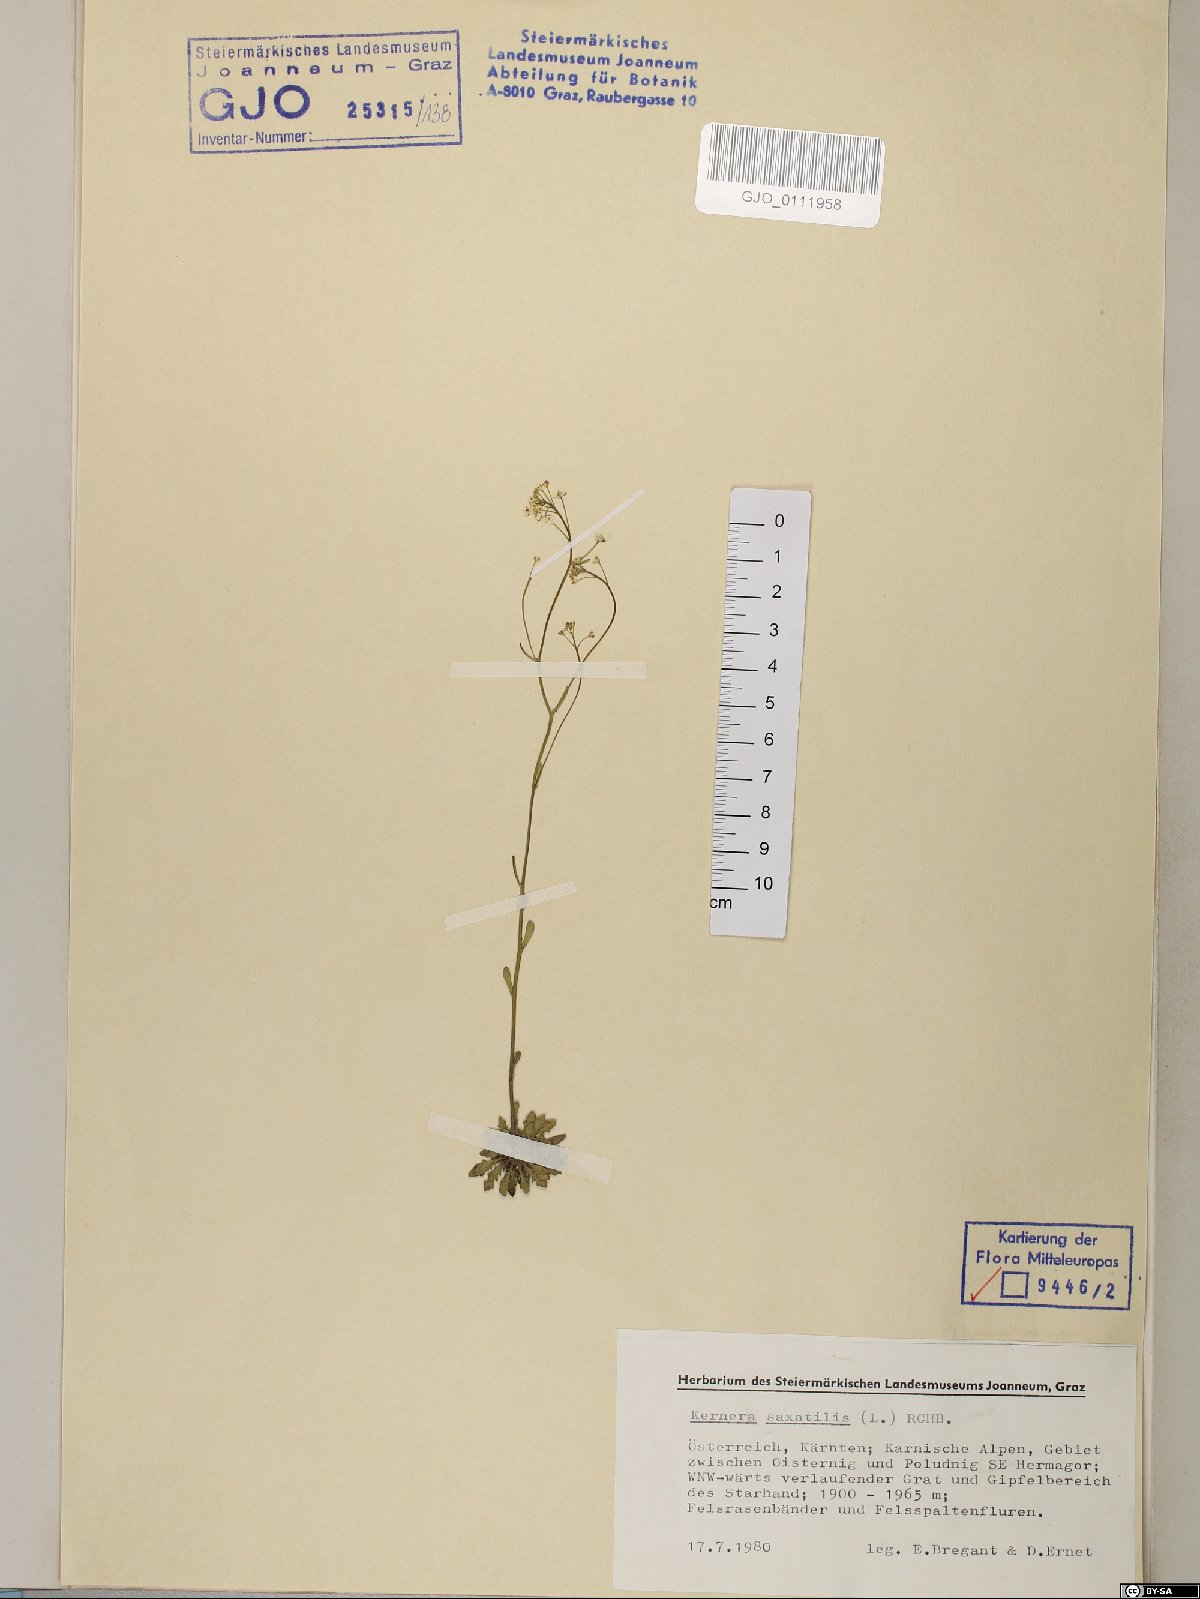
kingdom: Plantae
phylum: Tracheophyta
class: Magnoliopsida
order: Brassicales
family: Brassicaceae
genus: Kernera
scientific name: Kernera saxatilis
